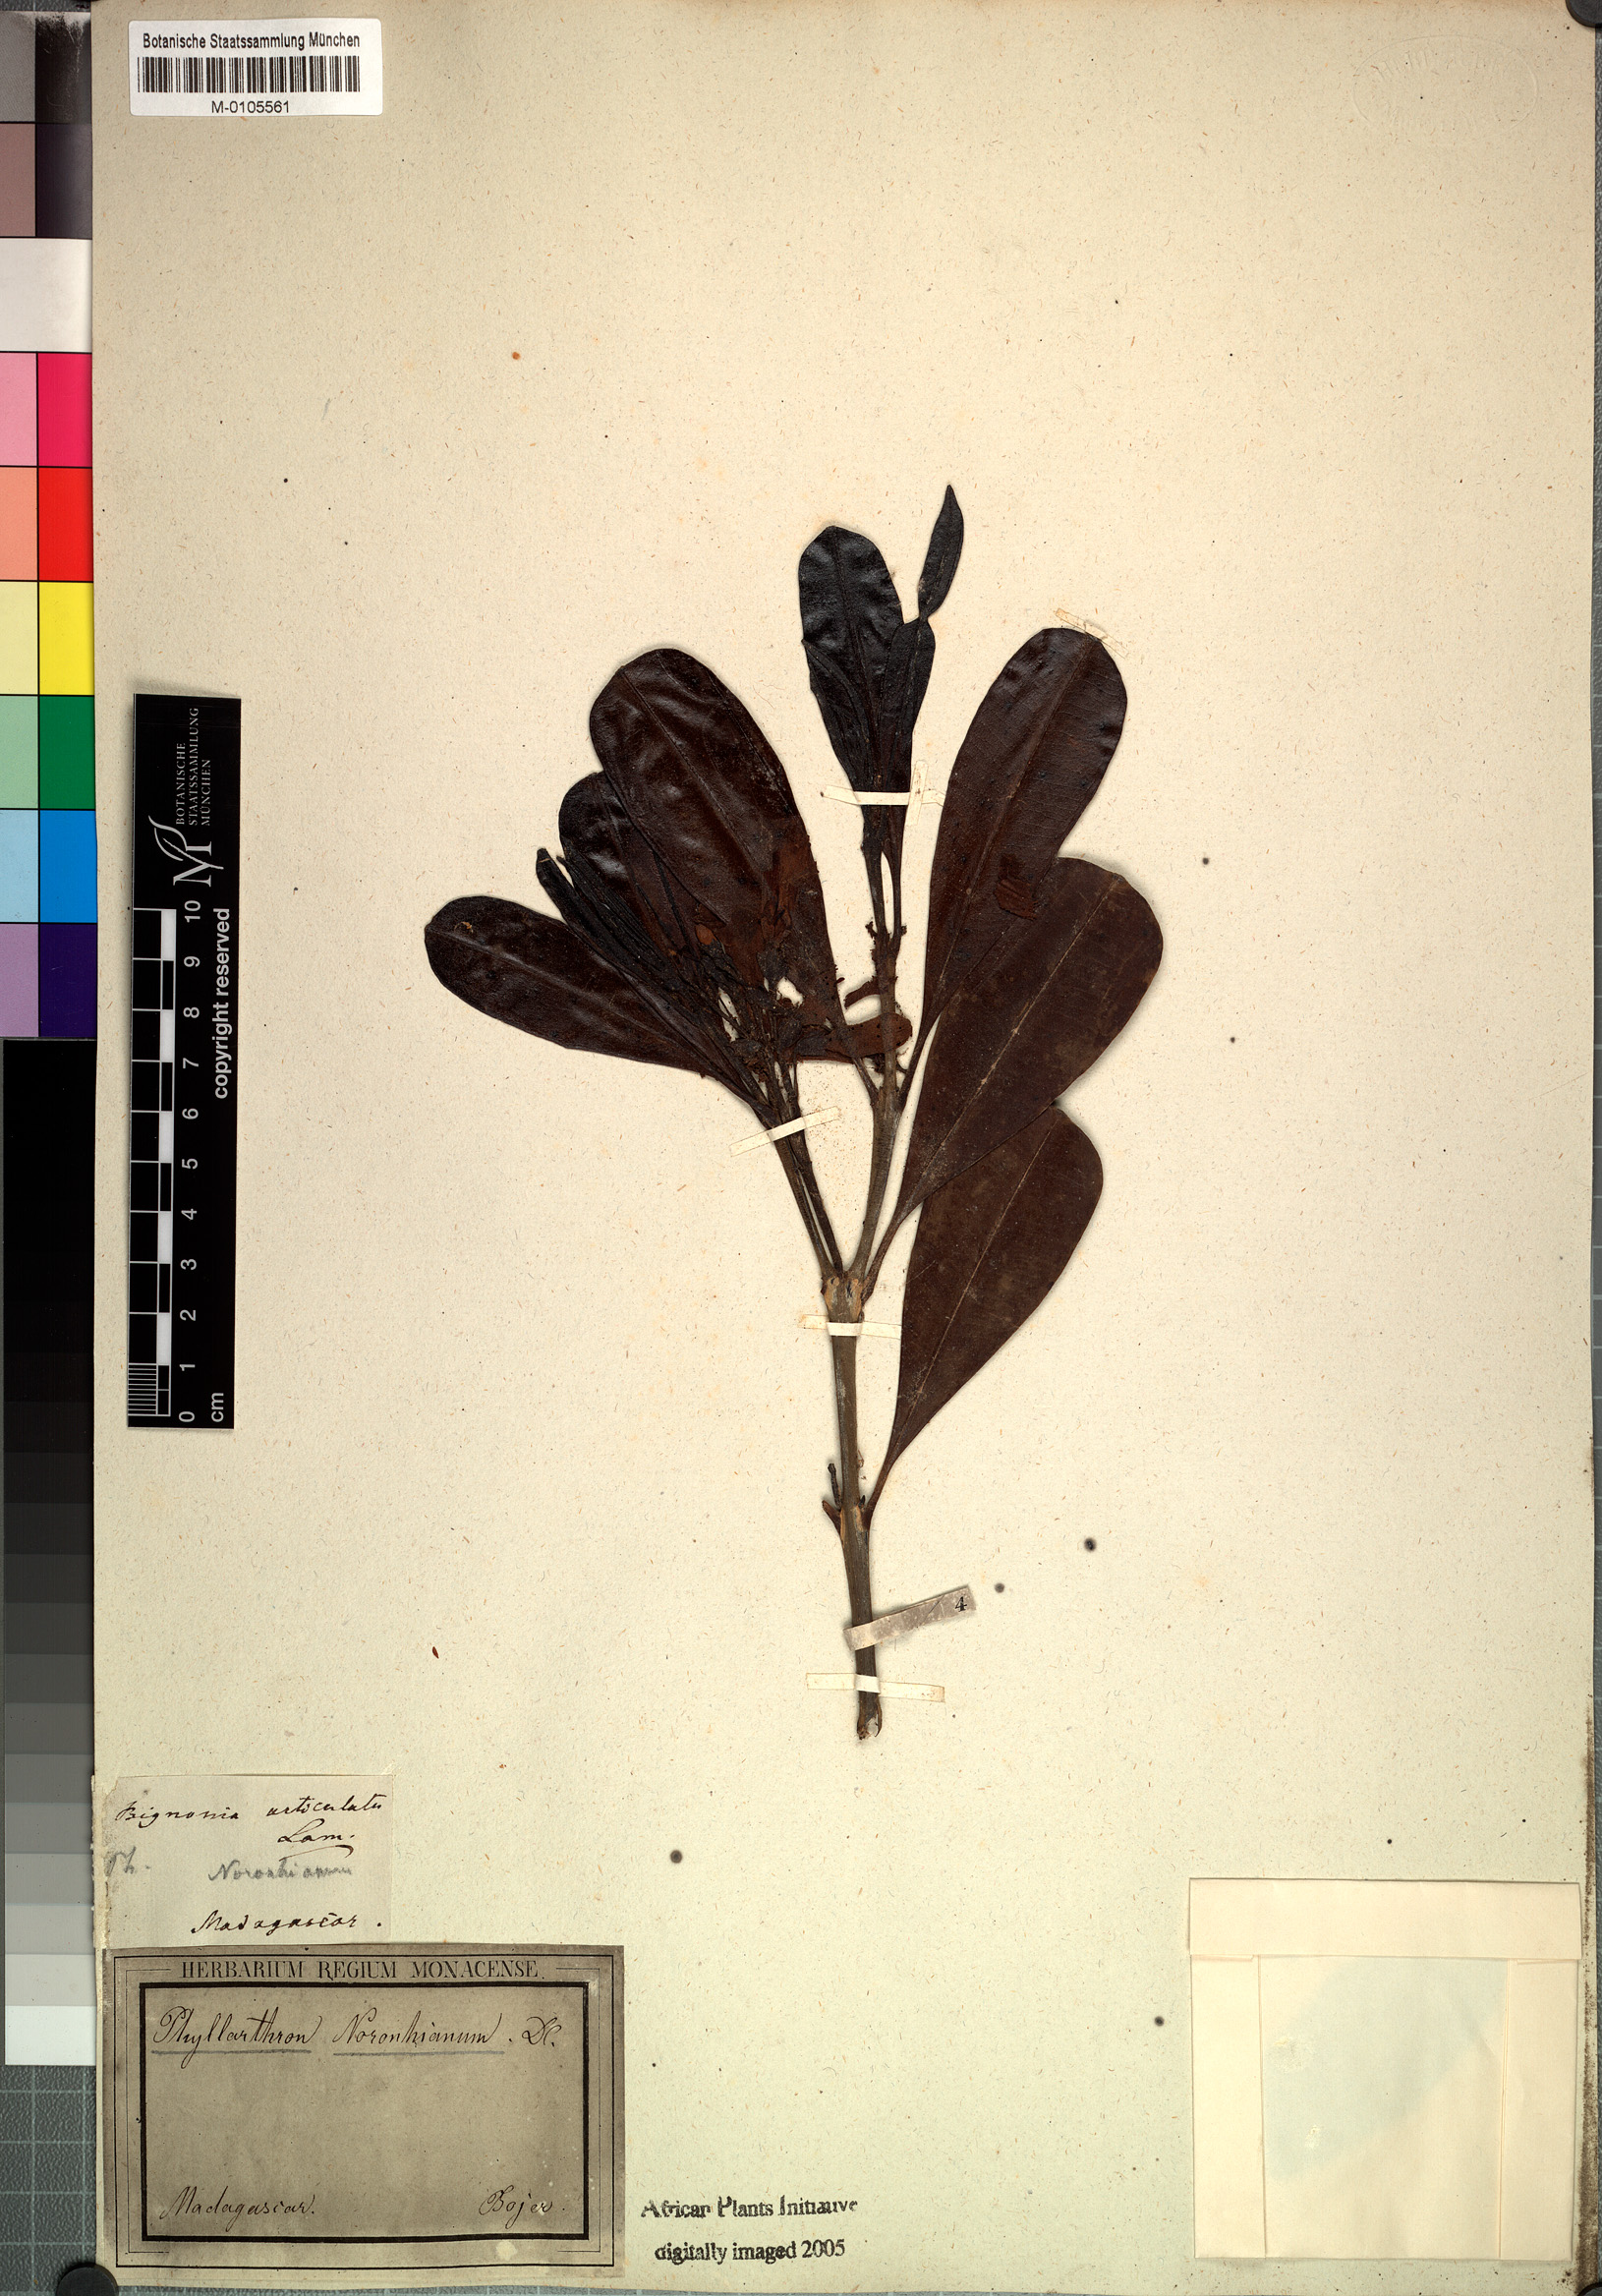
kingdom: Plantae
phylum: Tracheophyta
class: Magnoliopsida
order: Lamiales
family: Bignoniaceae
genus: Phyllarthron
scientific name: Phyllarthron articulatum
